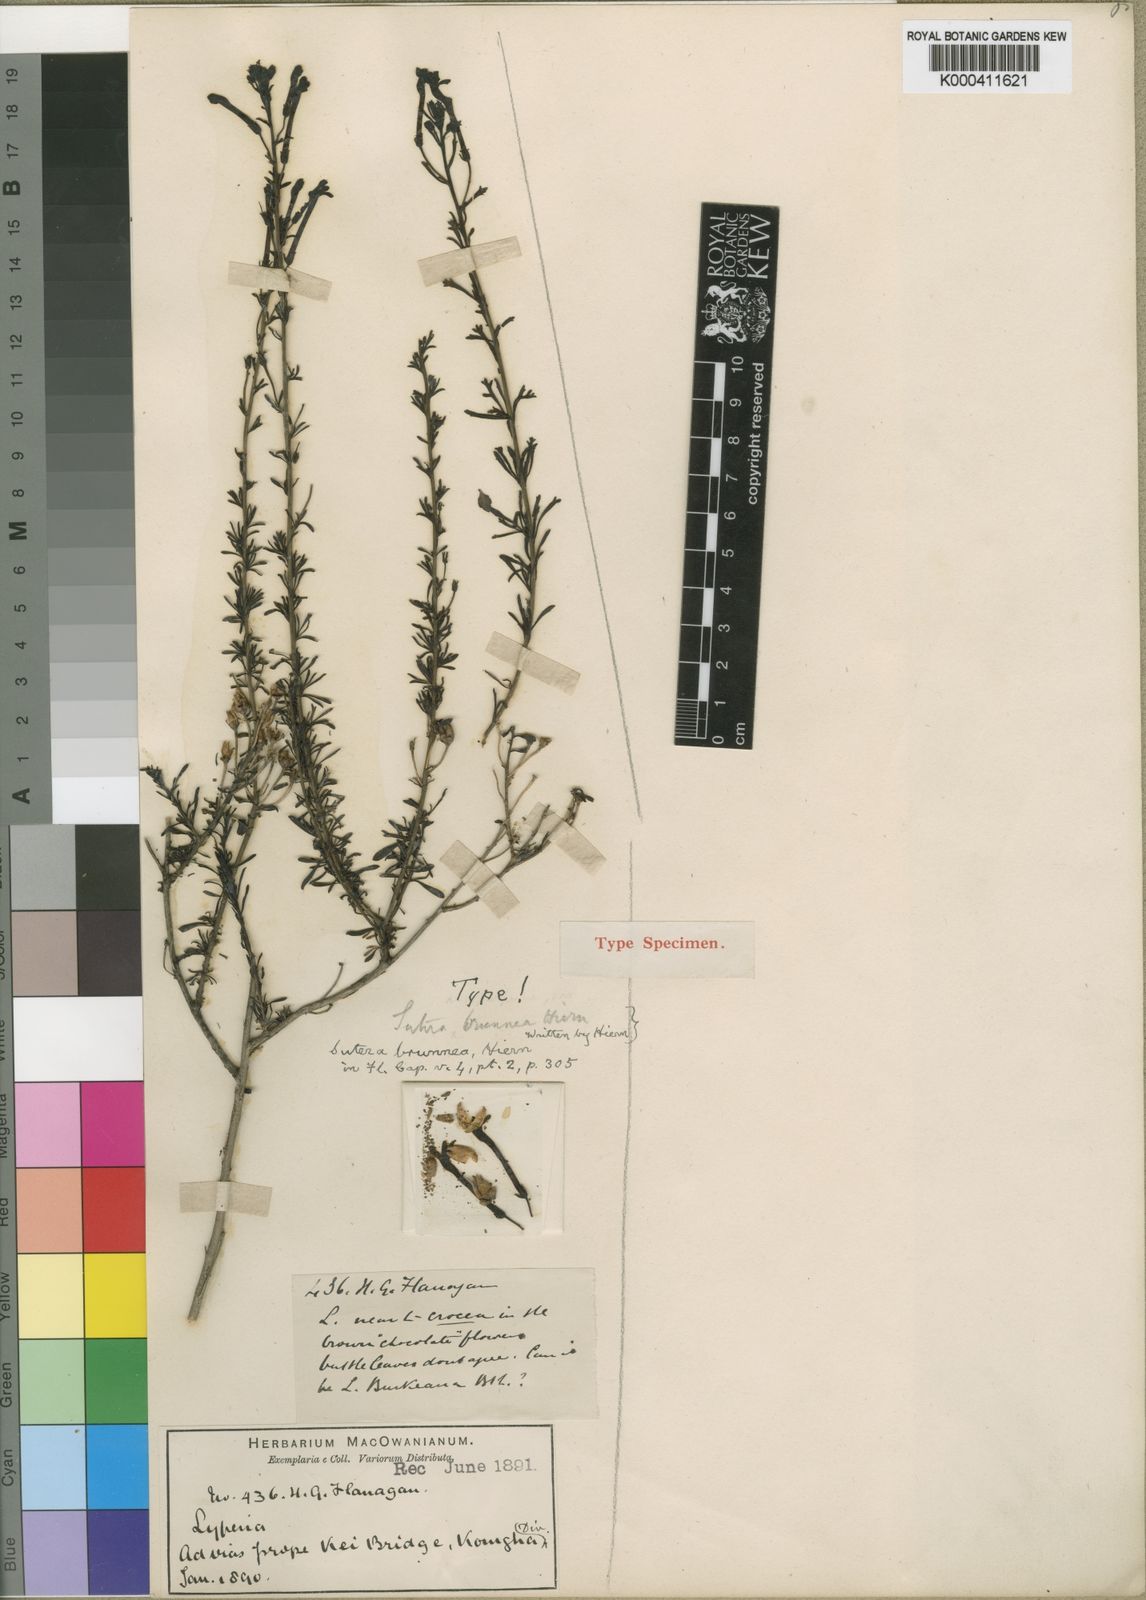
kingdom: Plantae
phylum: Tracheophyta
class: Magnoliopsida
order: Lamiales
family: Scrophulariaceae
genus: Jamesbrittenia
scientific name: Jamesbrittenia huillana
